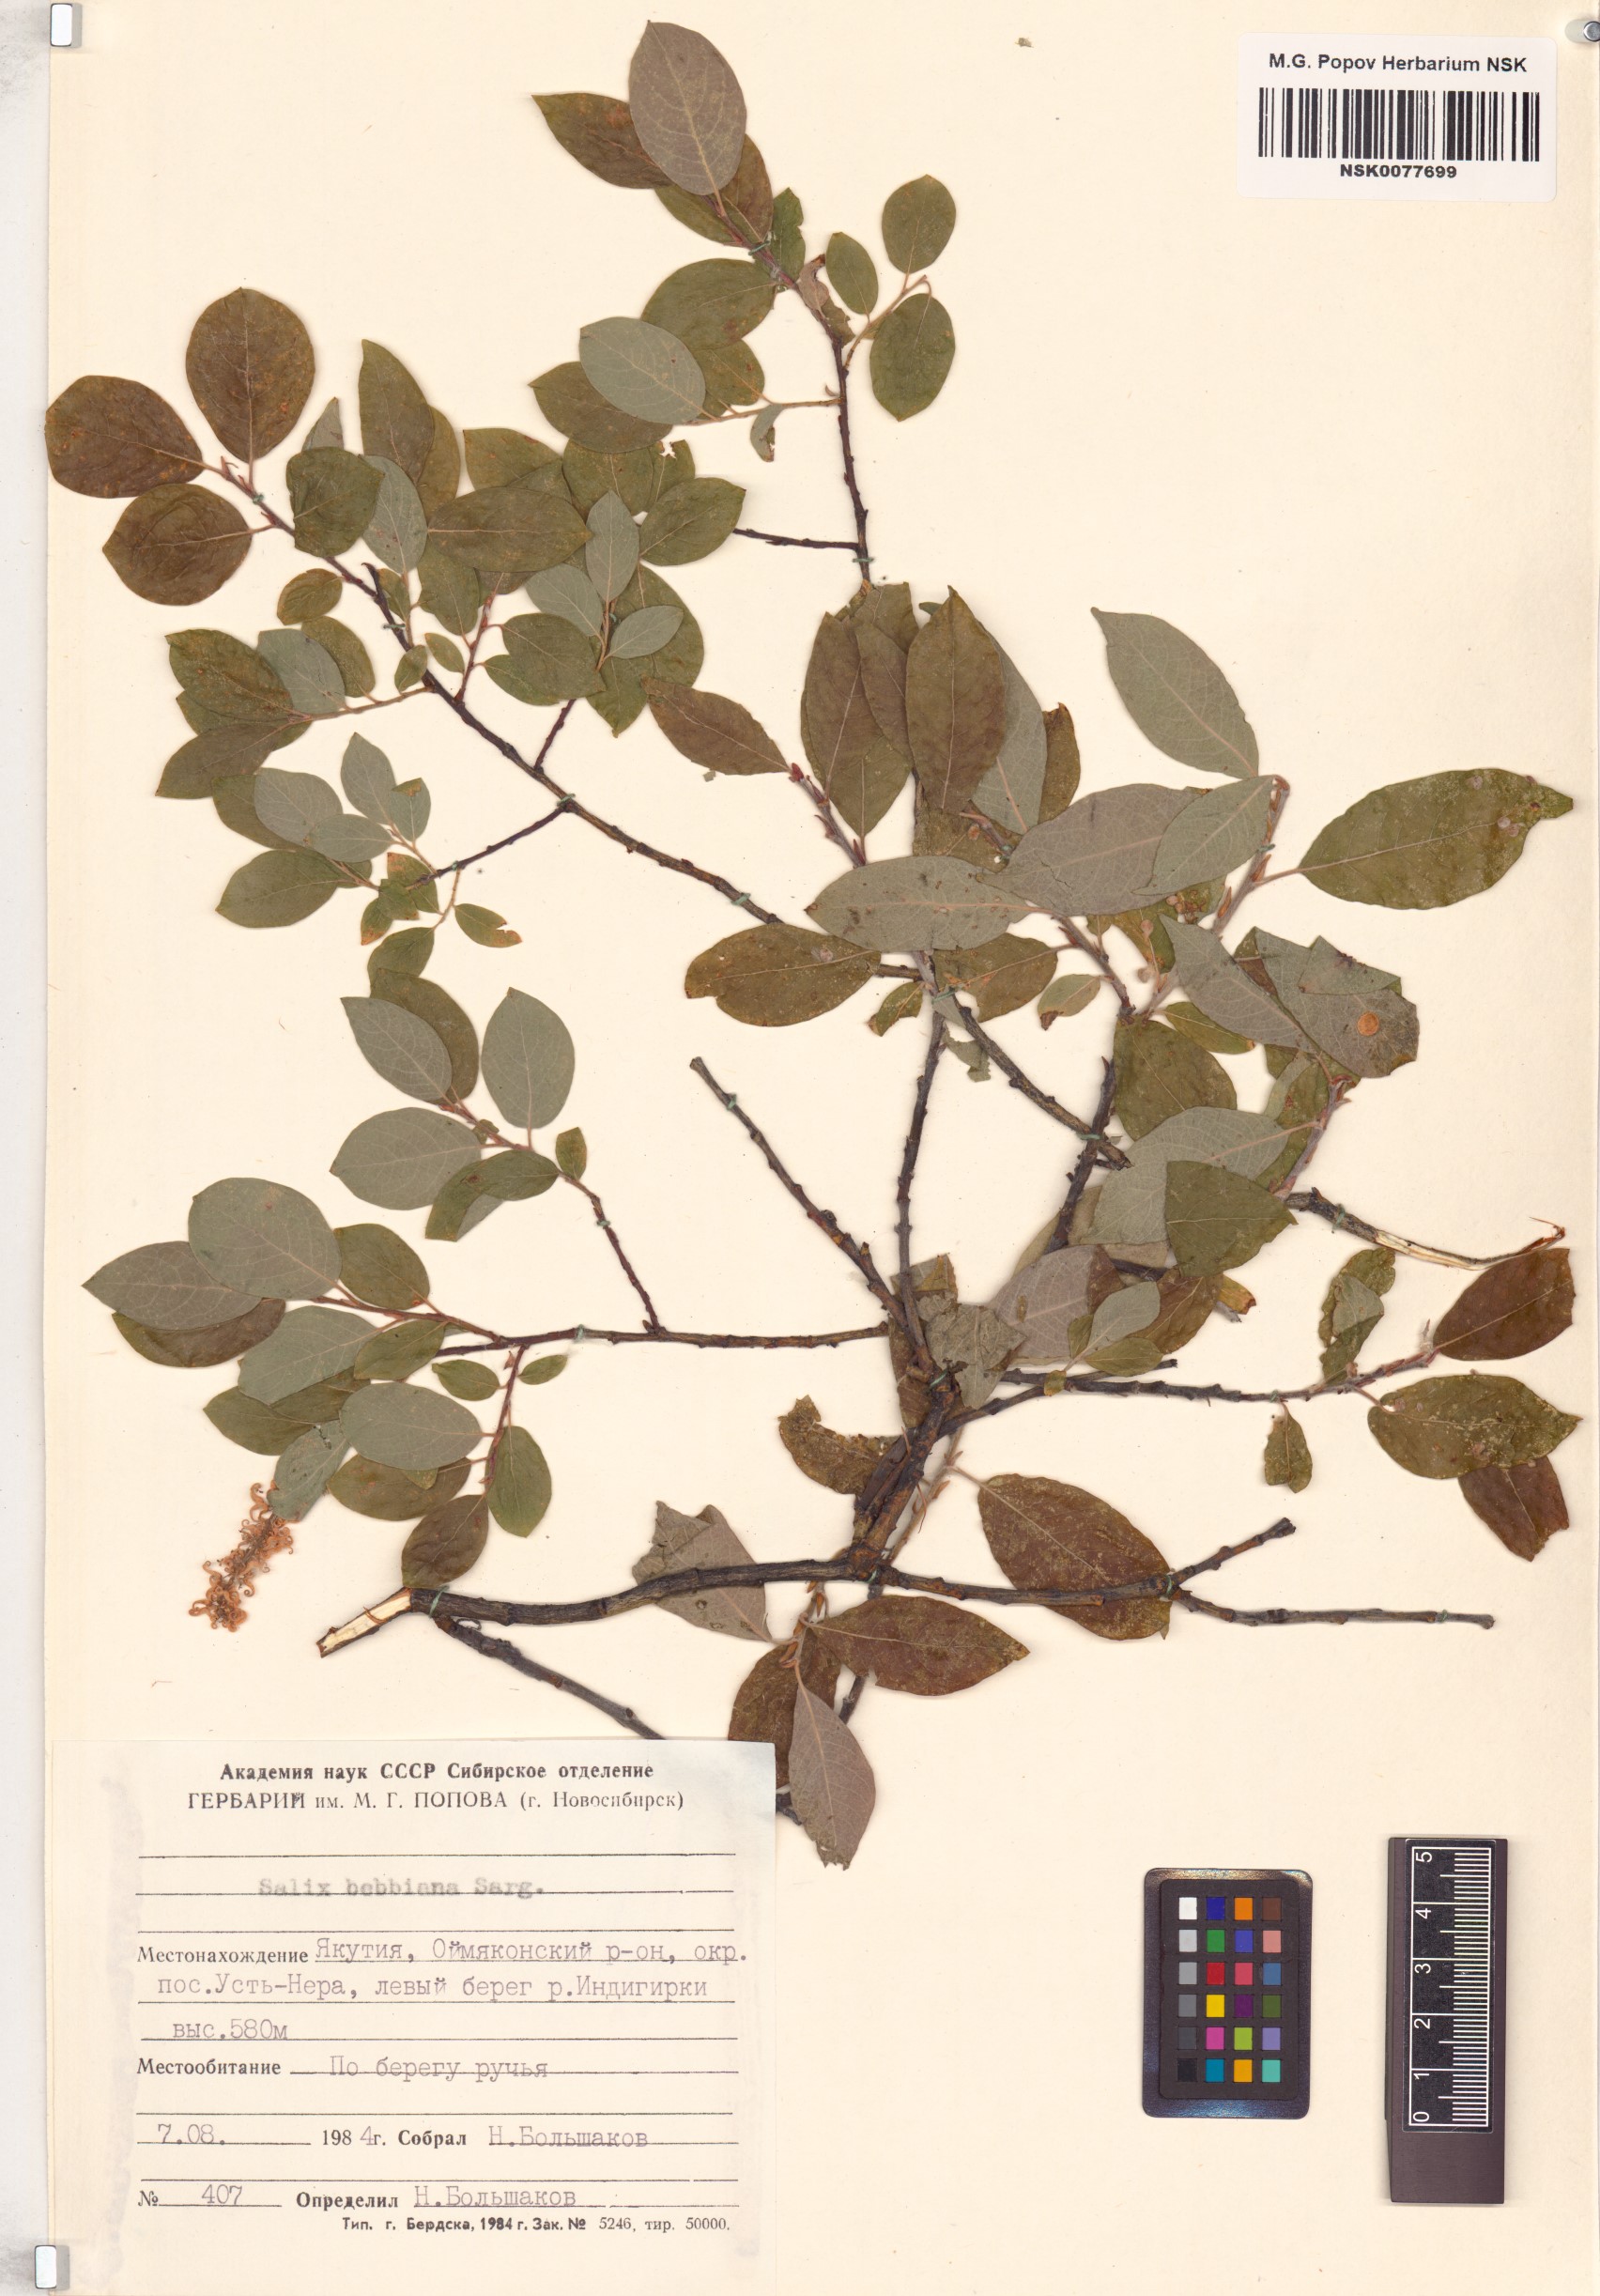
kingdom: Plantae
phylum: Tracheophyta
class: Magnoliopsida
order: Malpighiales
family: Salicaceae
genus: Salix
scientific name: Salix bebbiana
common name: Bebb's willow
